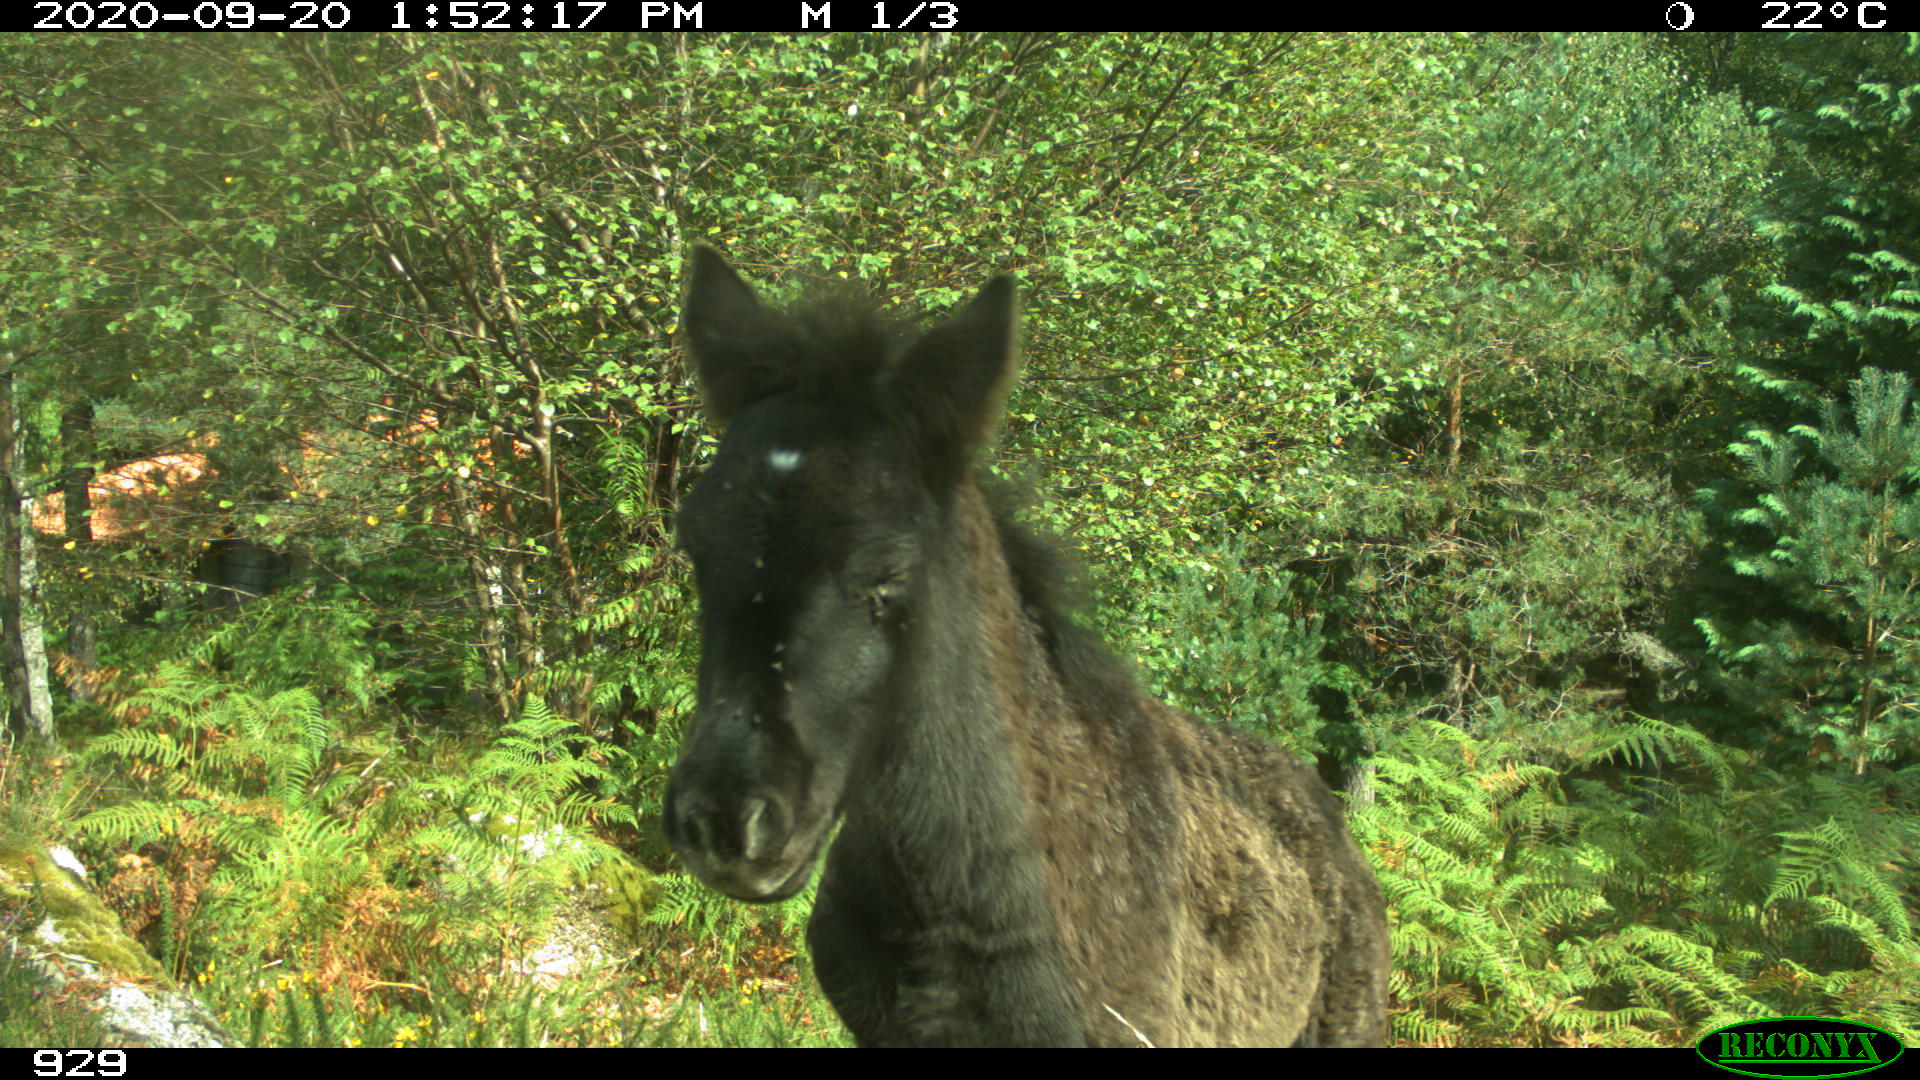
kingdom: Animalia
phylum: Chordata
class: Mammalia
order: Perissodactyla
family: Equidae
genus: Equus
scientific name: Equus caballus
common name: Horse
